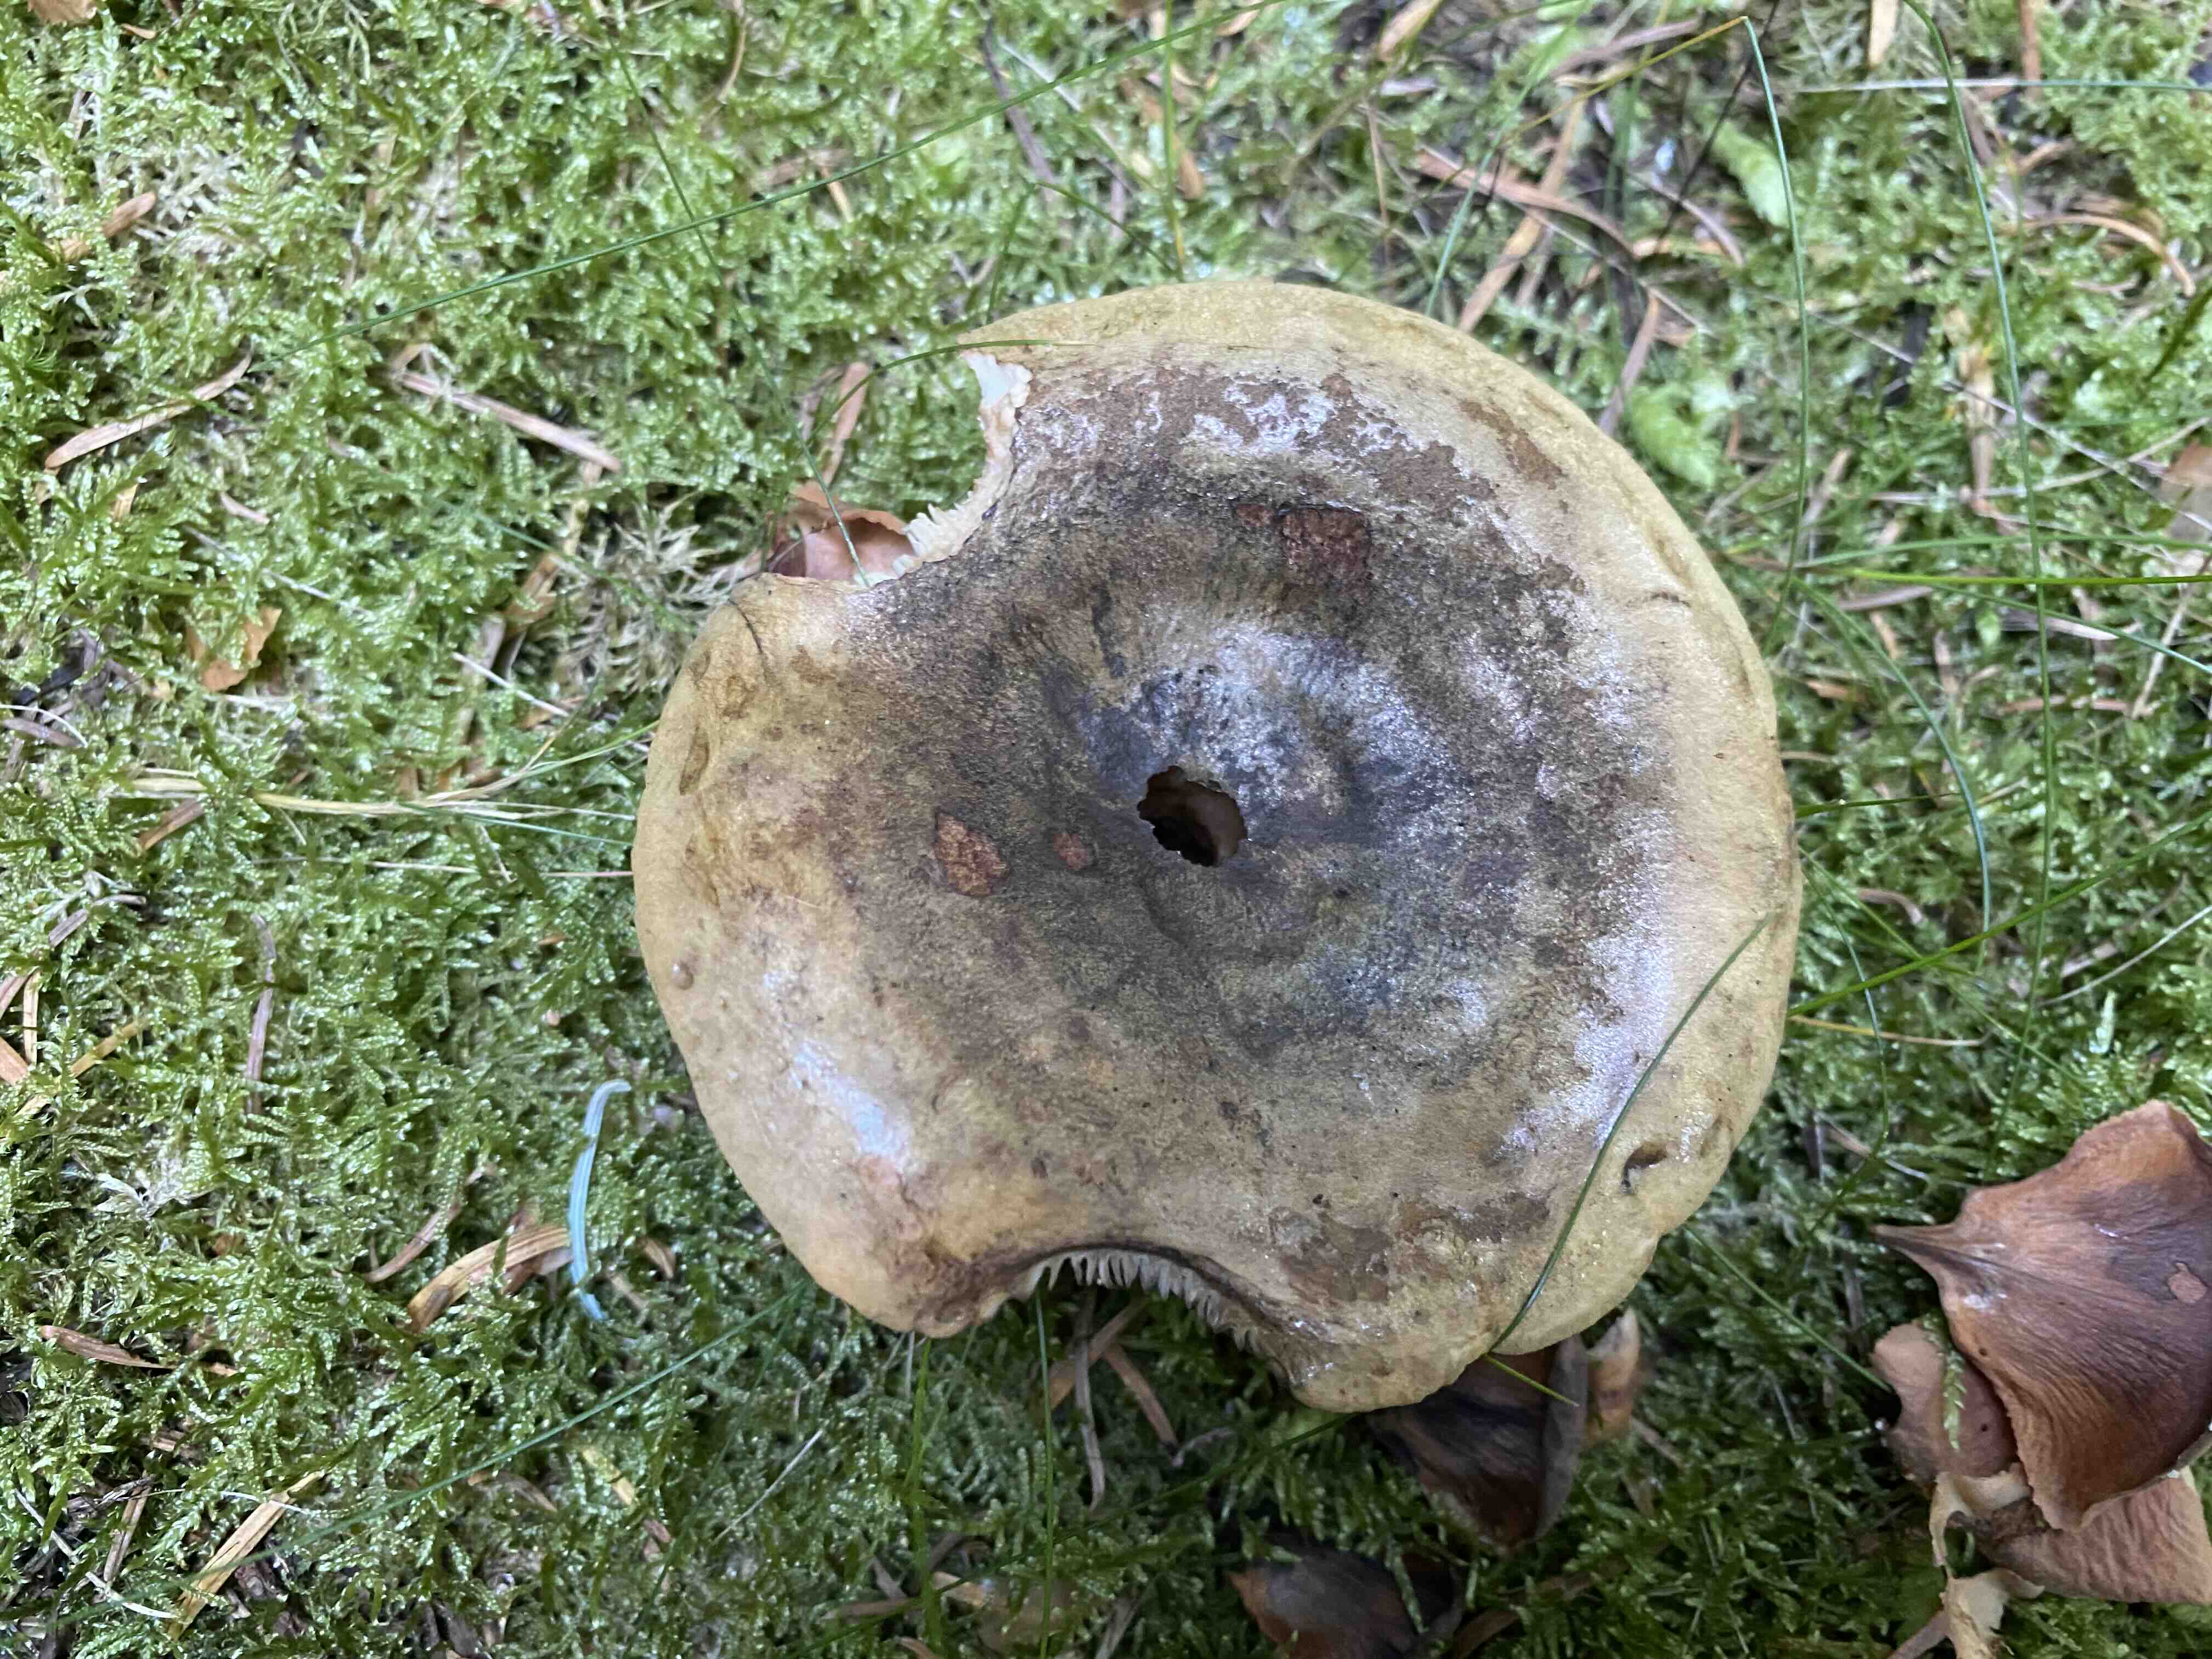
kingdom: Fungi
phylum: Basidiomycota
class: Agaricomycetes
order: Russulales
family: Russulaceae
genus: Lactarius
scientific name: Lactarius necator
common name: manddraber-mælkehat
